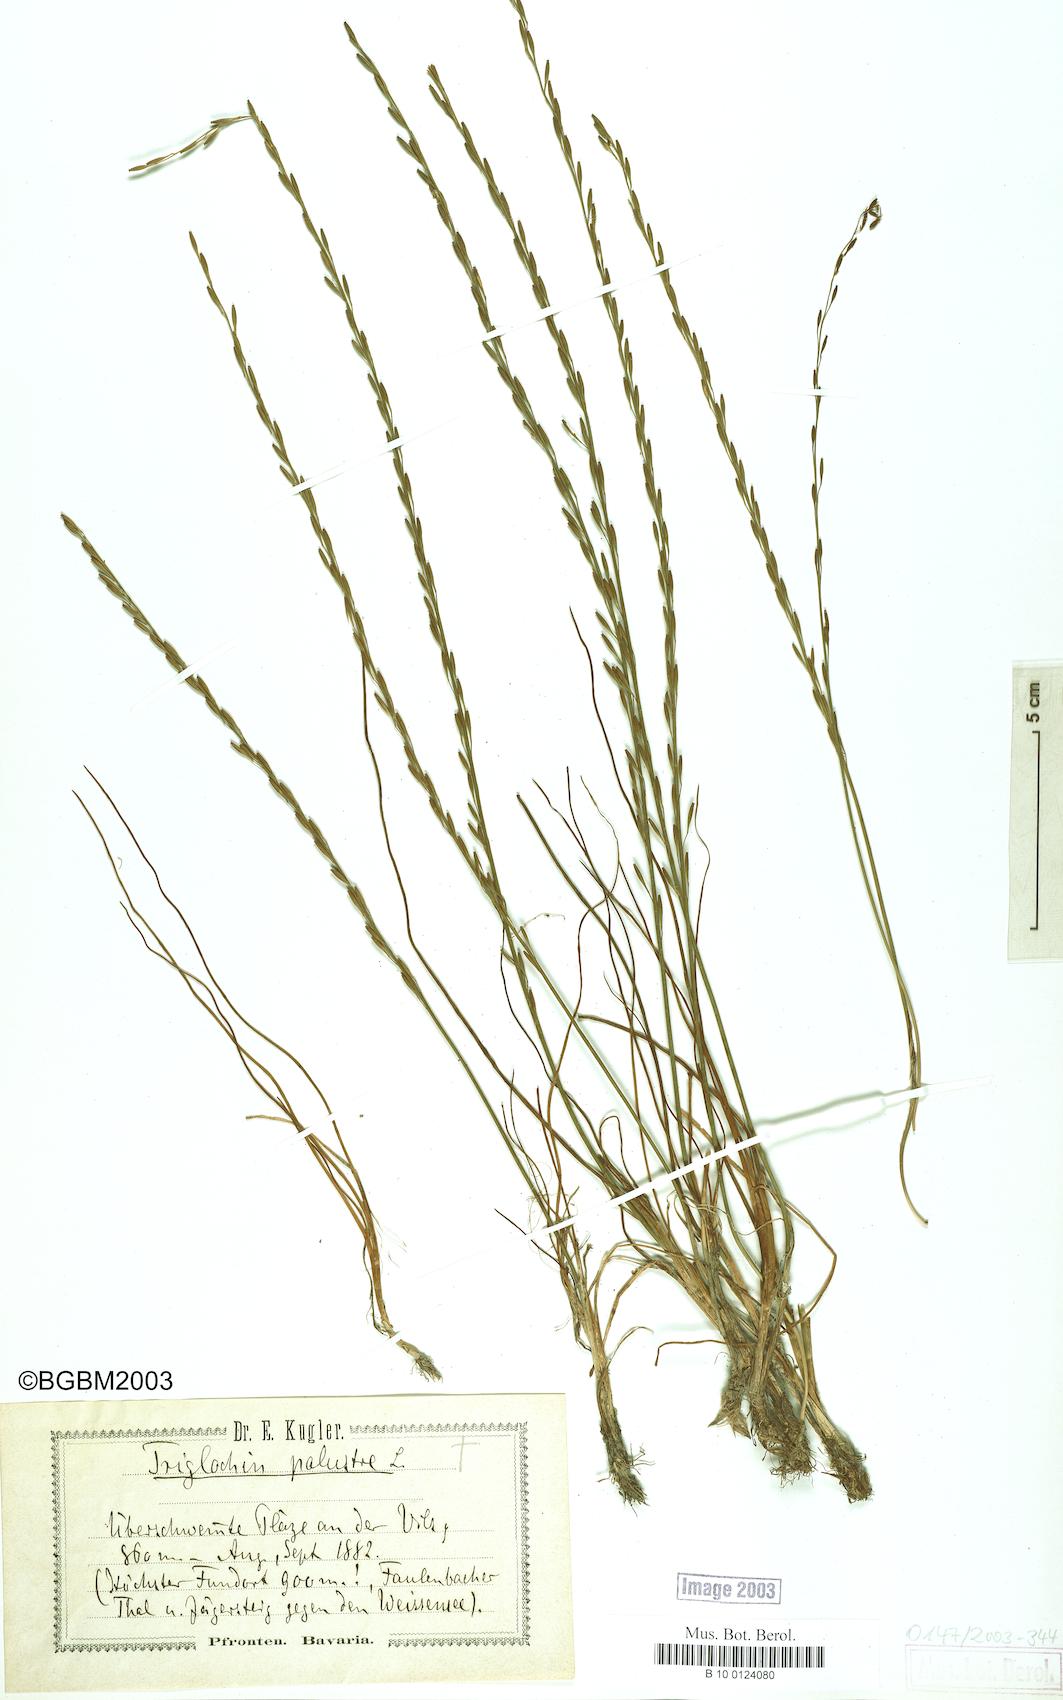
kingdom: Plantae
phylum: Tracheophyta
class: Liliopsida
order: Alismatales
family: Juncaginaceae
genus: Triglochin
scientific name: Triglochin palustris
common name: Marsh arrowgrass
